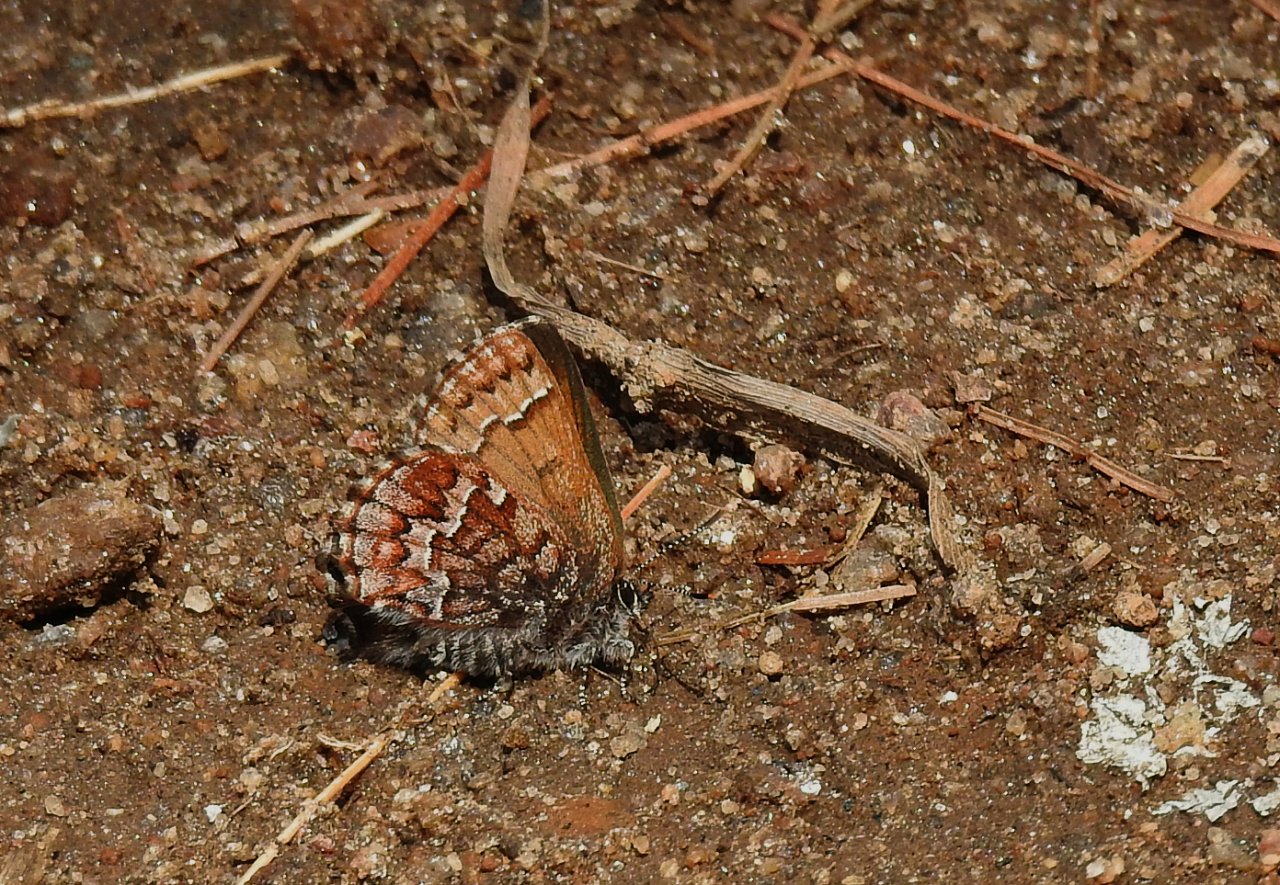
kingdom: Animalia
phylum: Arthropoda
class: Insecta
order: Lepidoptera
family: Lycaenidae
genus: Incisalia
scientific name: Incisalia niphon
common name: Eastern Pine Elfin
